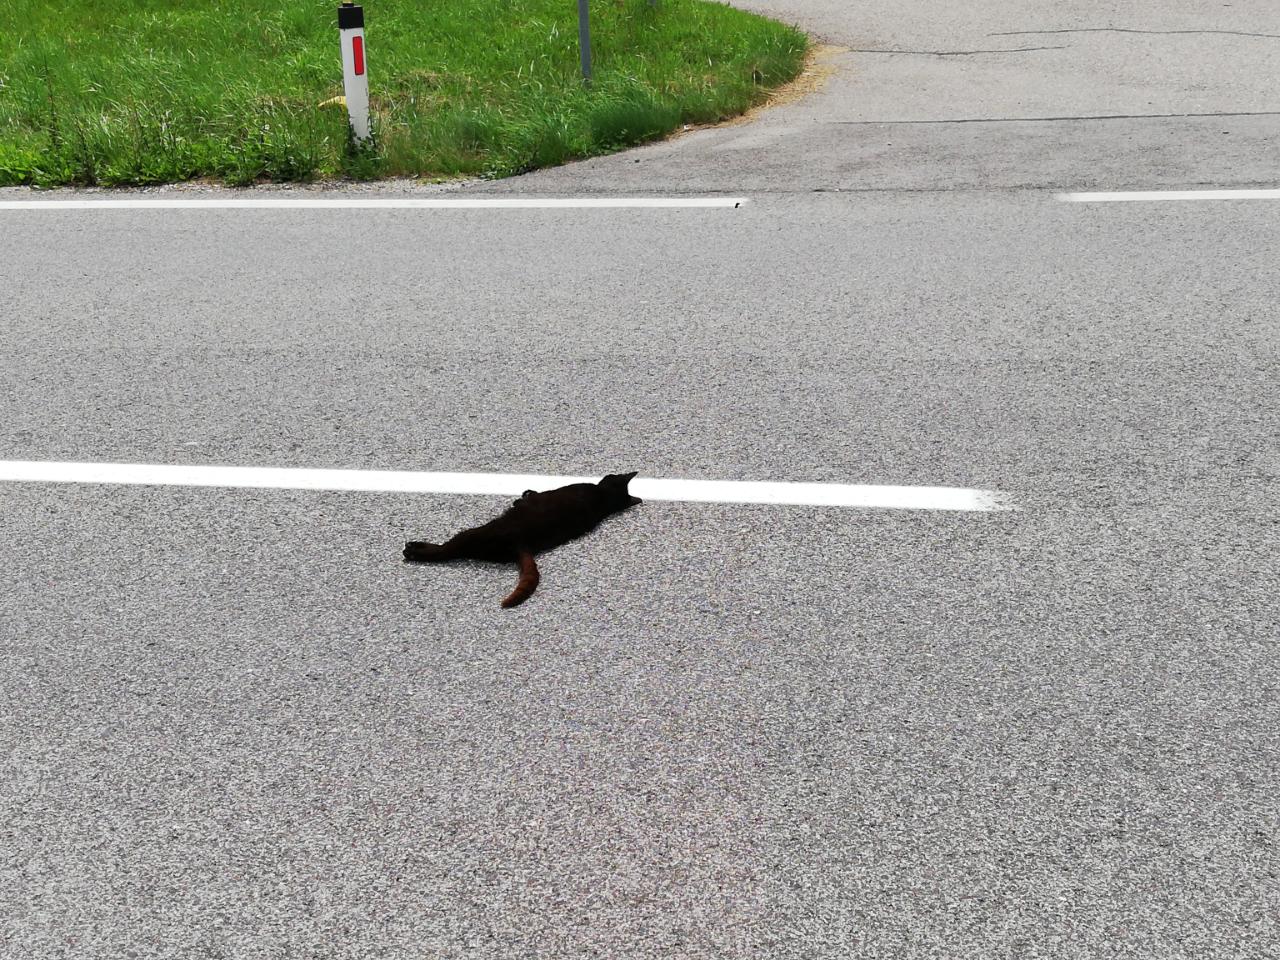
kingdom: Animalia
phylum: Chordata
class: Mammalia
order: Carnivora
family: Felidae
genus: Felis
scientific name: Felis catus
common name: Domestic cat
